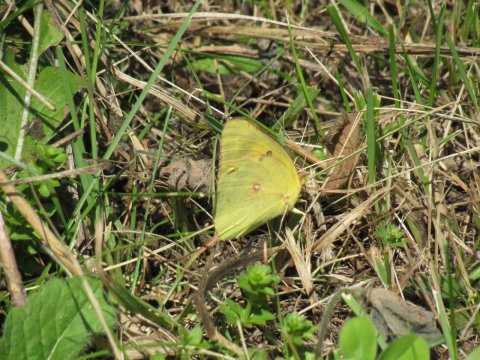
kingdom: Animalia
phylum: Arthropoda
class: Insecta
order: Lepidoptera
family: Pieridae
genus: Colias
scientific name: Colias eurytheme
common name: Orange Sulphur
